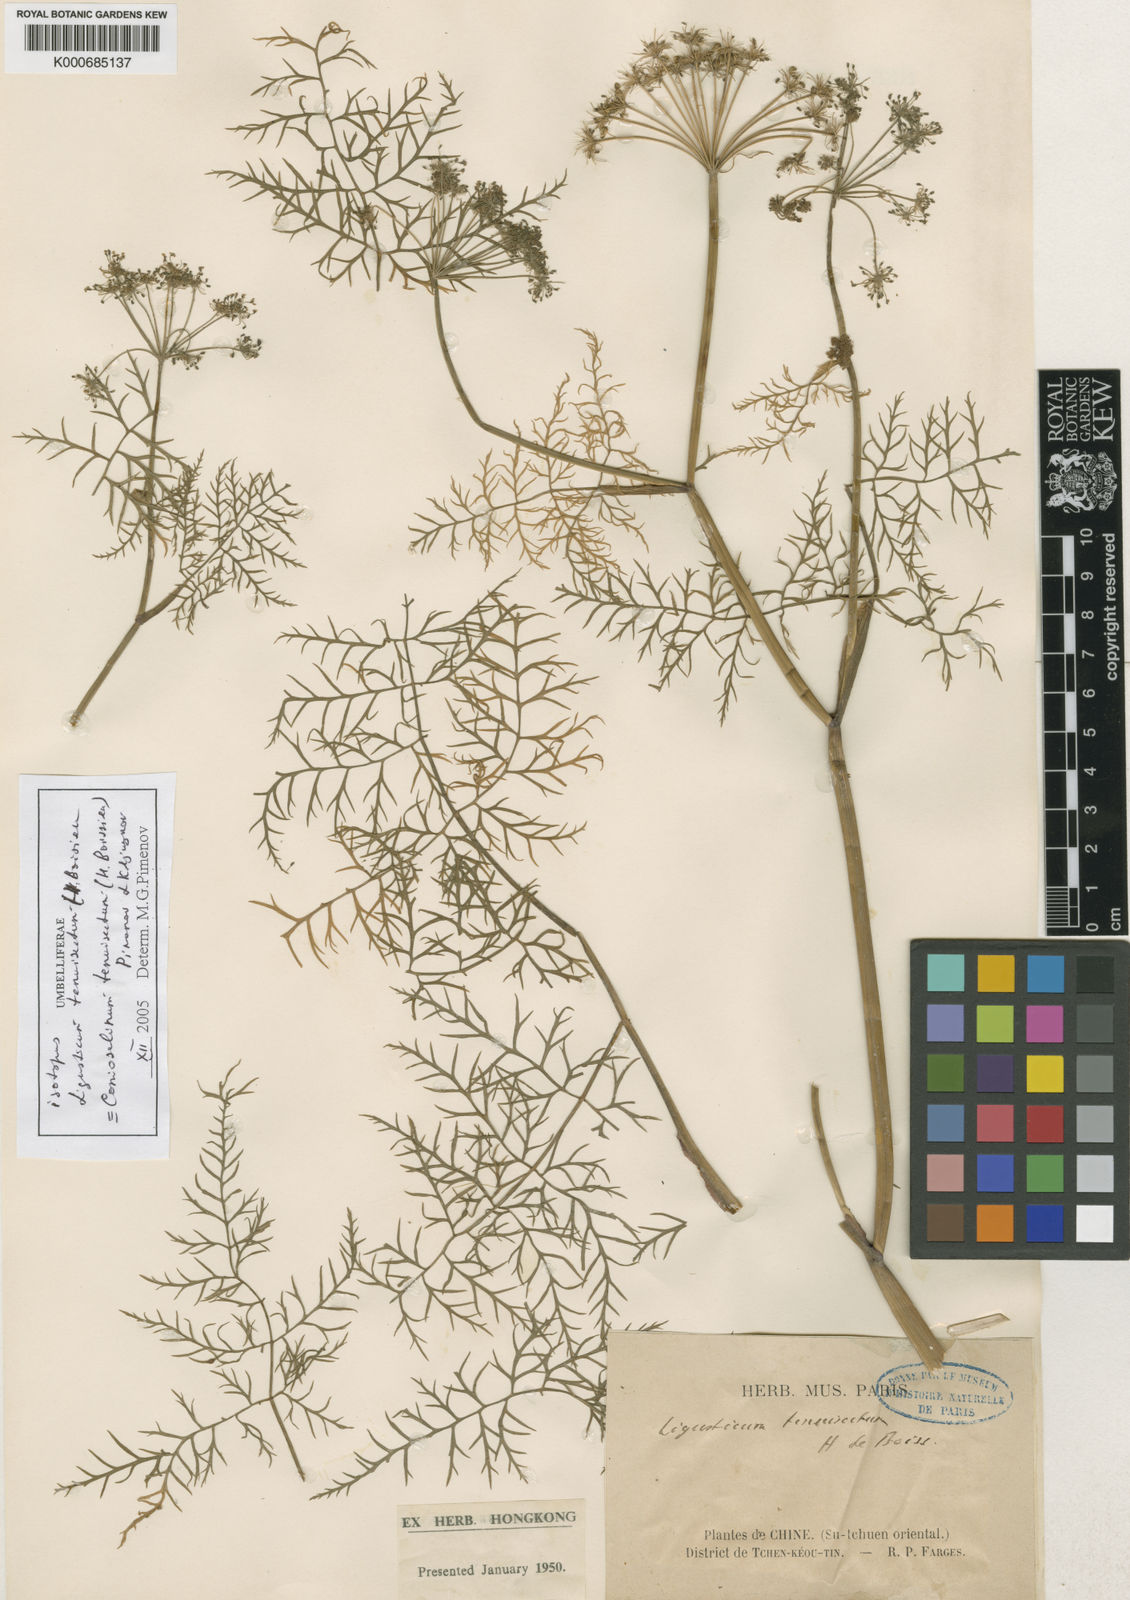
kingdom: Plantae
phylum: Tracheophyta
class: Magnoliopsida
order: Apiales
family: Apiaceae
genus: Conioselinum
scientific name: Conioselinum tenuisectum
